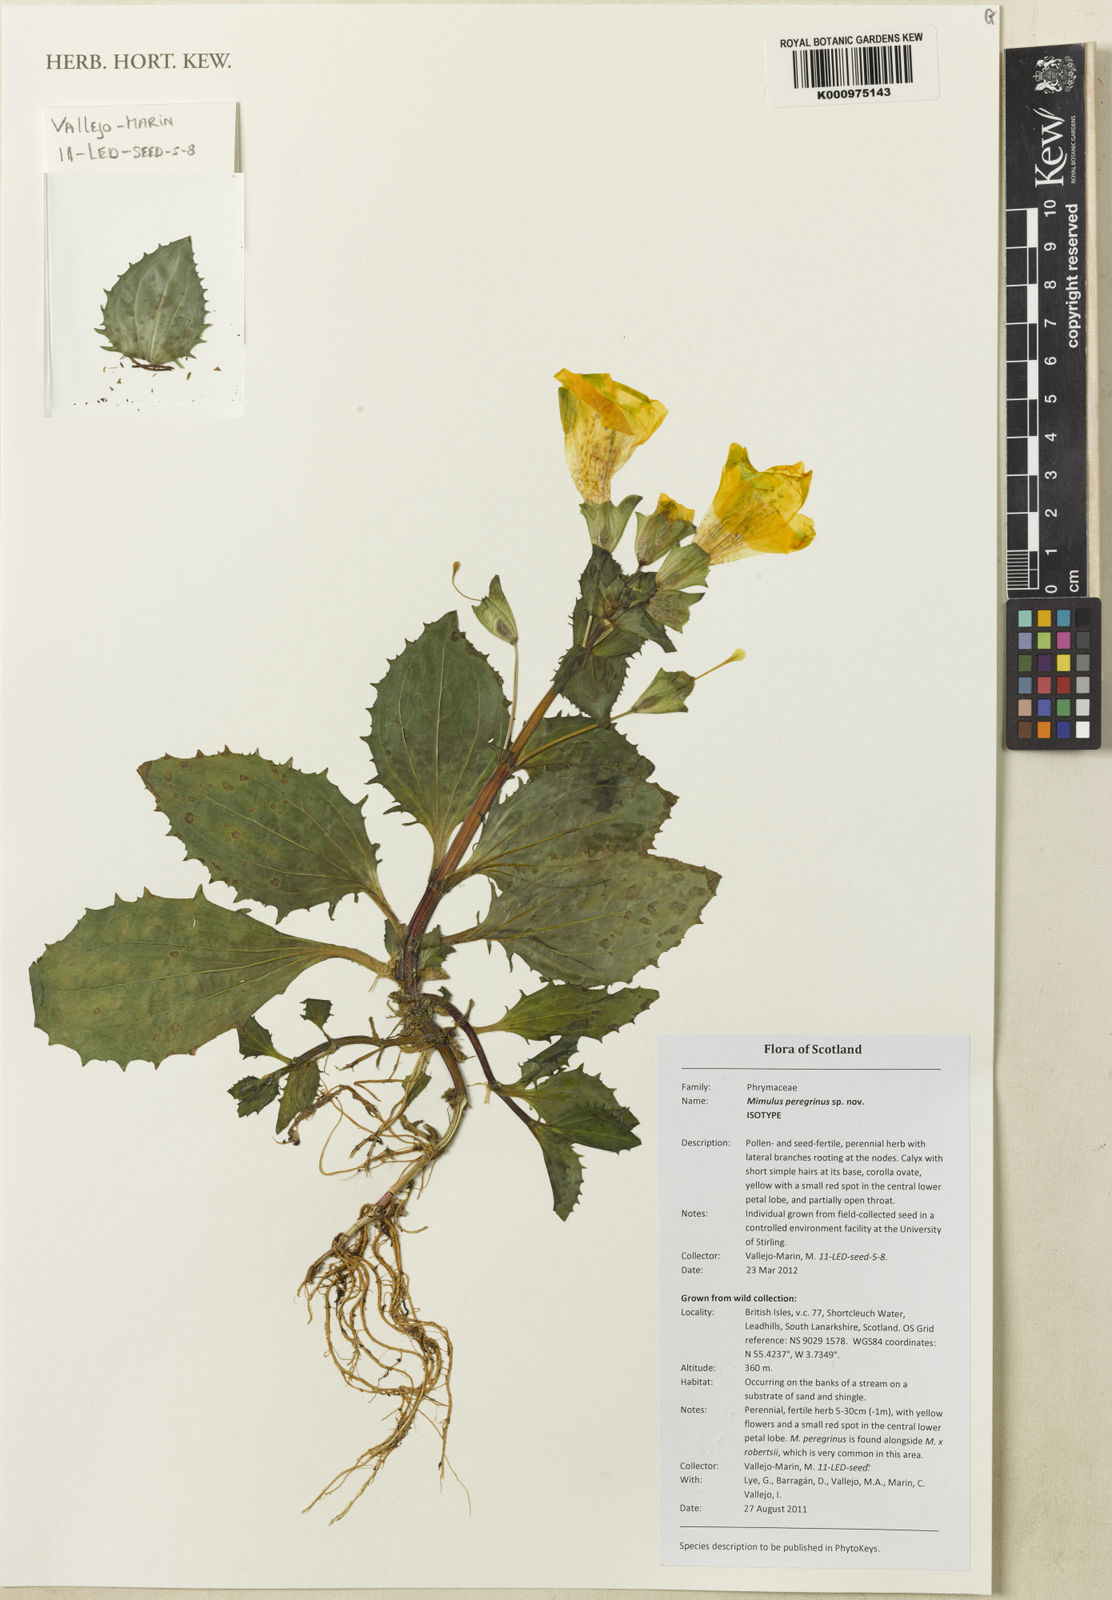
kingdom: Plantae
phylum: Tracheophyta
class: Magnoliopsida
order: Lamiales
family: Phrymaceae
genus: Mimulus
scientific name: Mimulus
